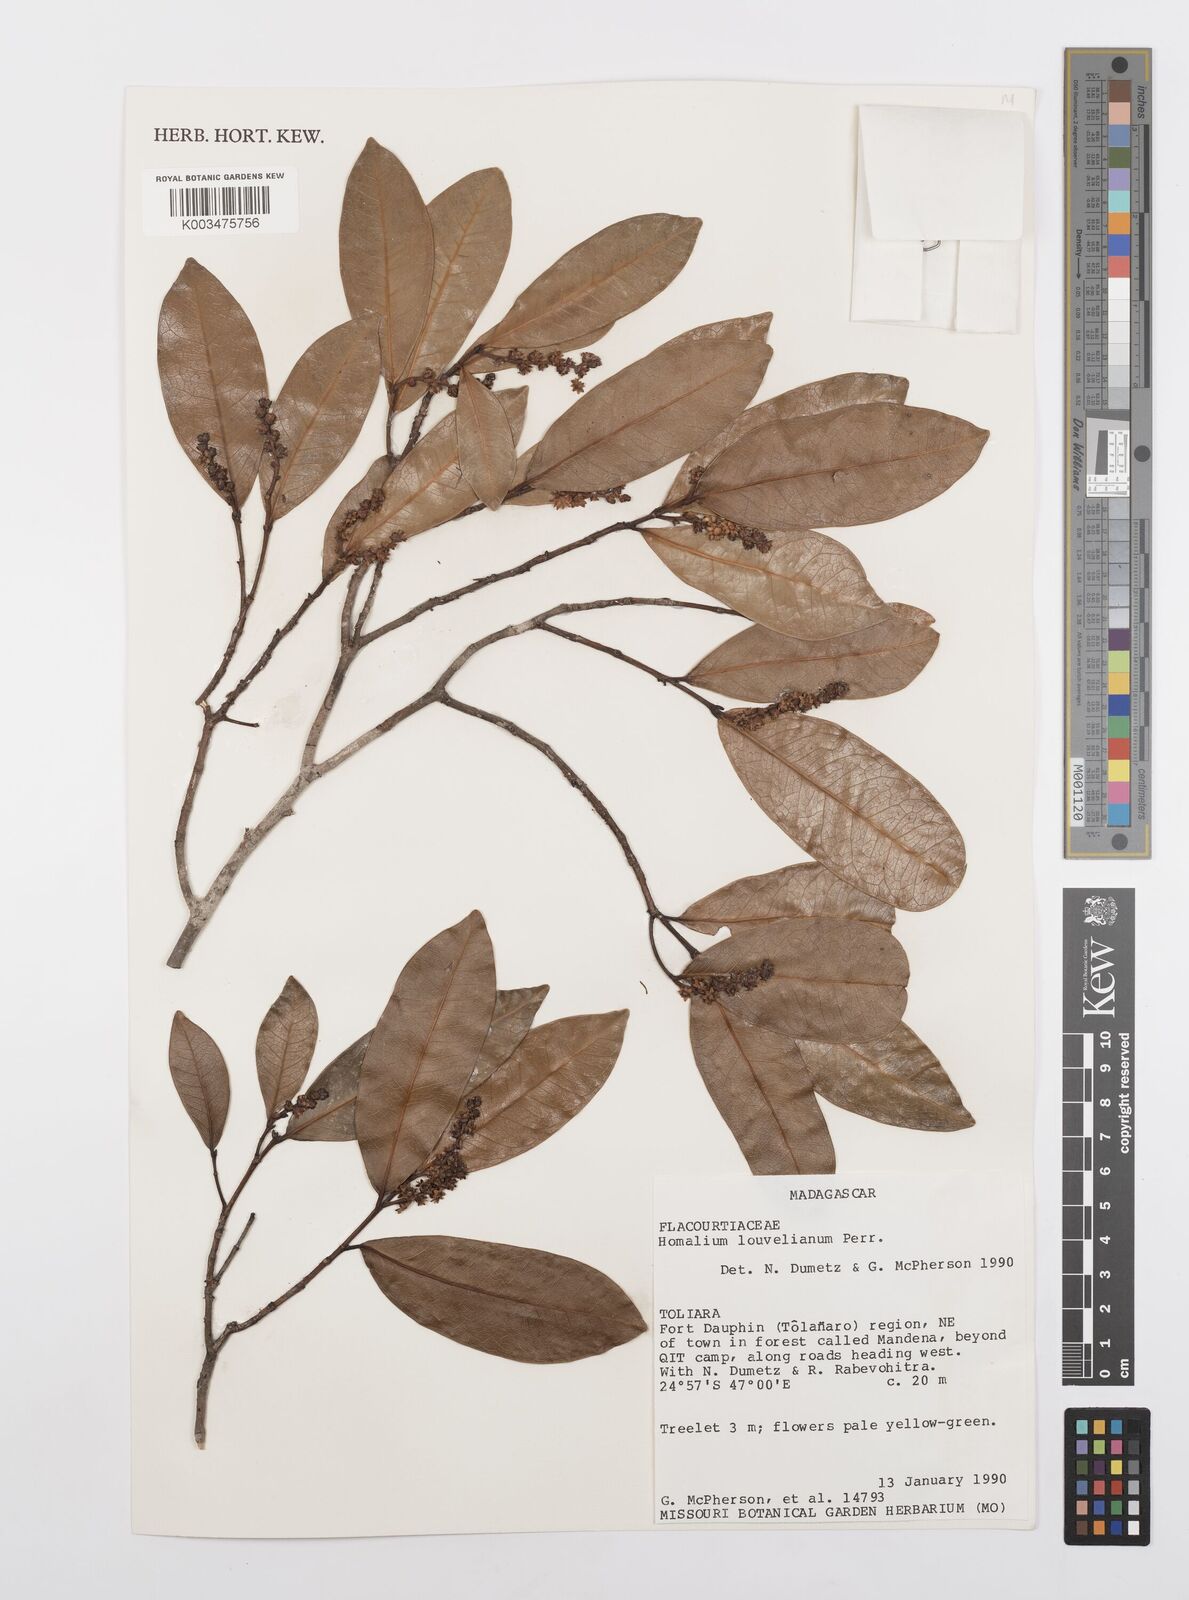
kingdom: Plantae
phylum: Tracheophyta
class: Magnoliopsida
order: Malpighiales
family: Salicaceae
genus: Homalium
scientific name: Homalium louvelianum
